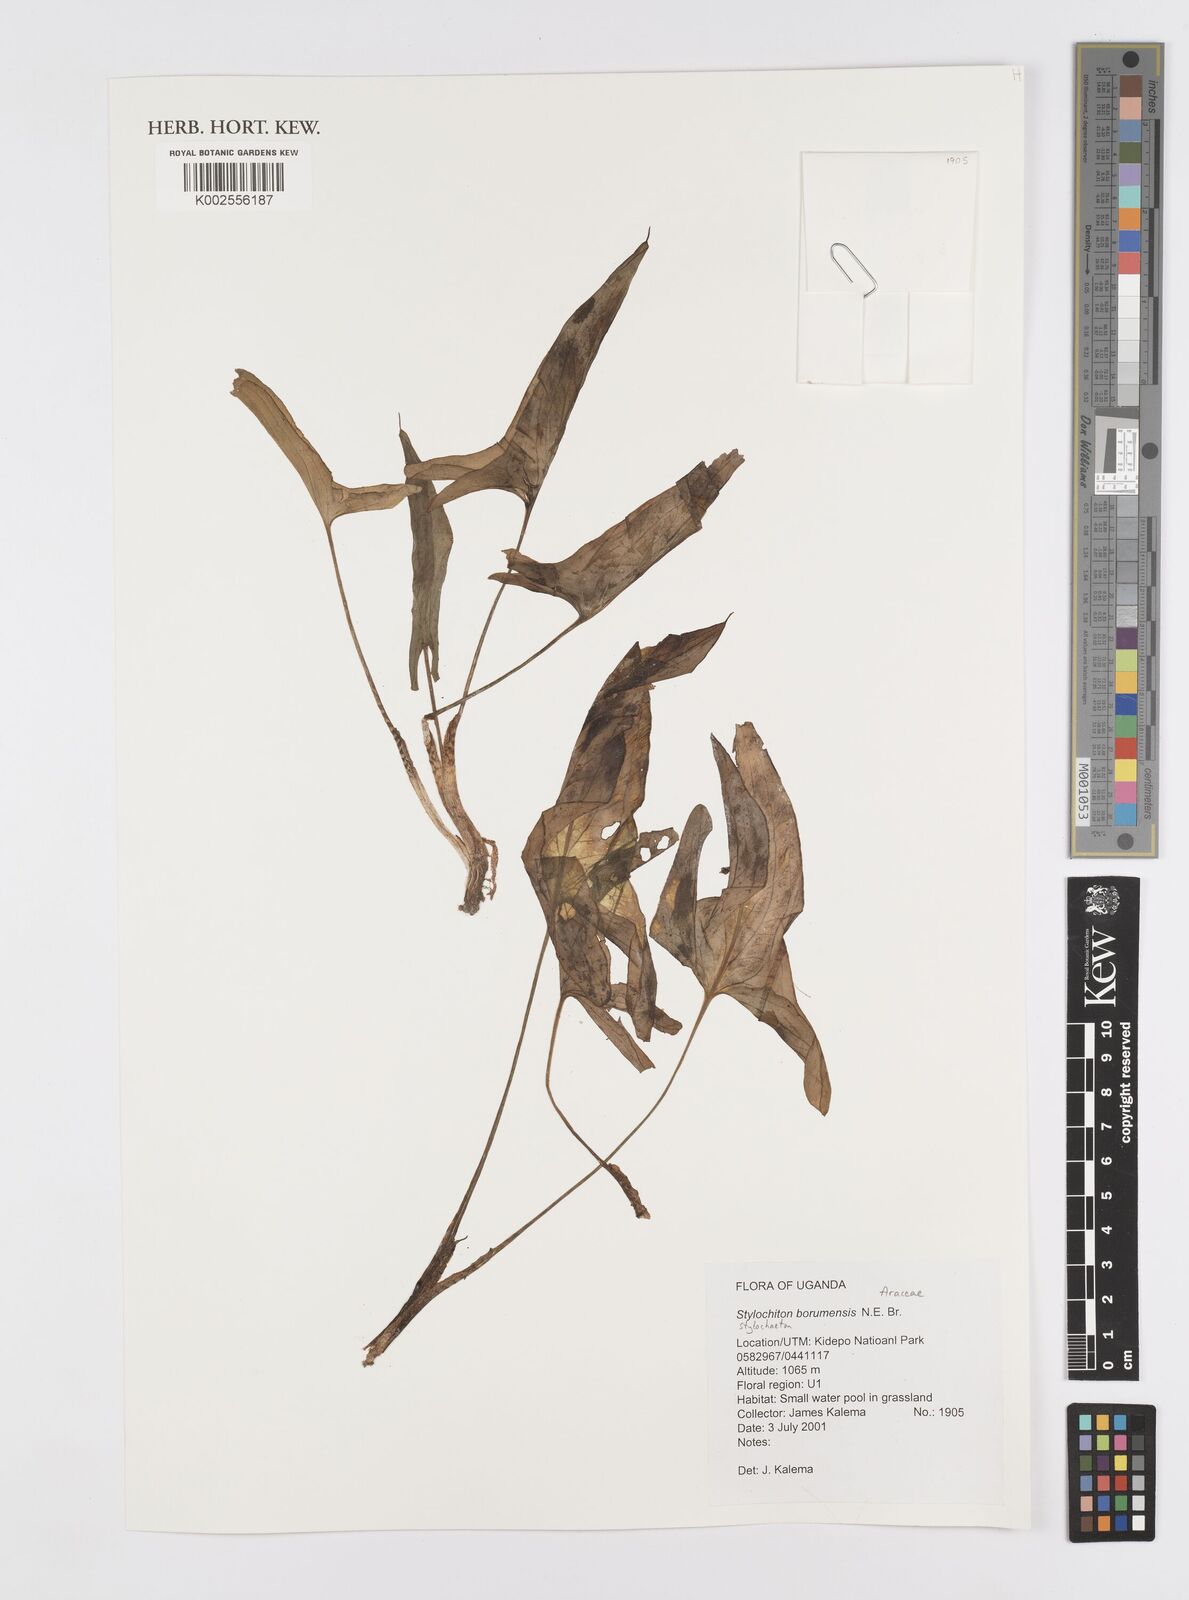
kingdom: Plantae
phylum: Tracheophyta
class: Liliopsida
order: Alismatales
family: Araceae
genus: Stylochaeton
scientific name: Stylochaeton borumense
